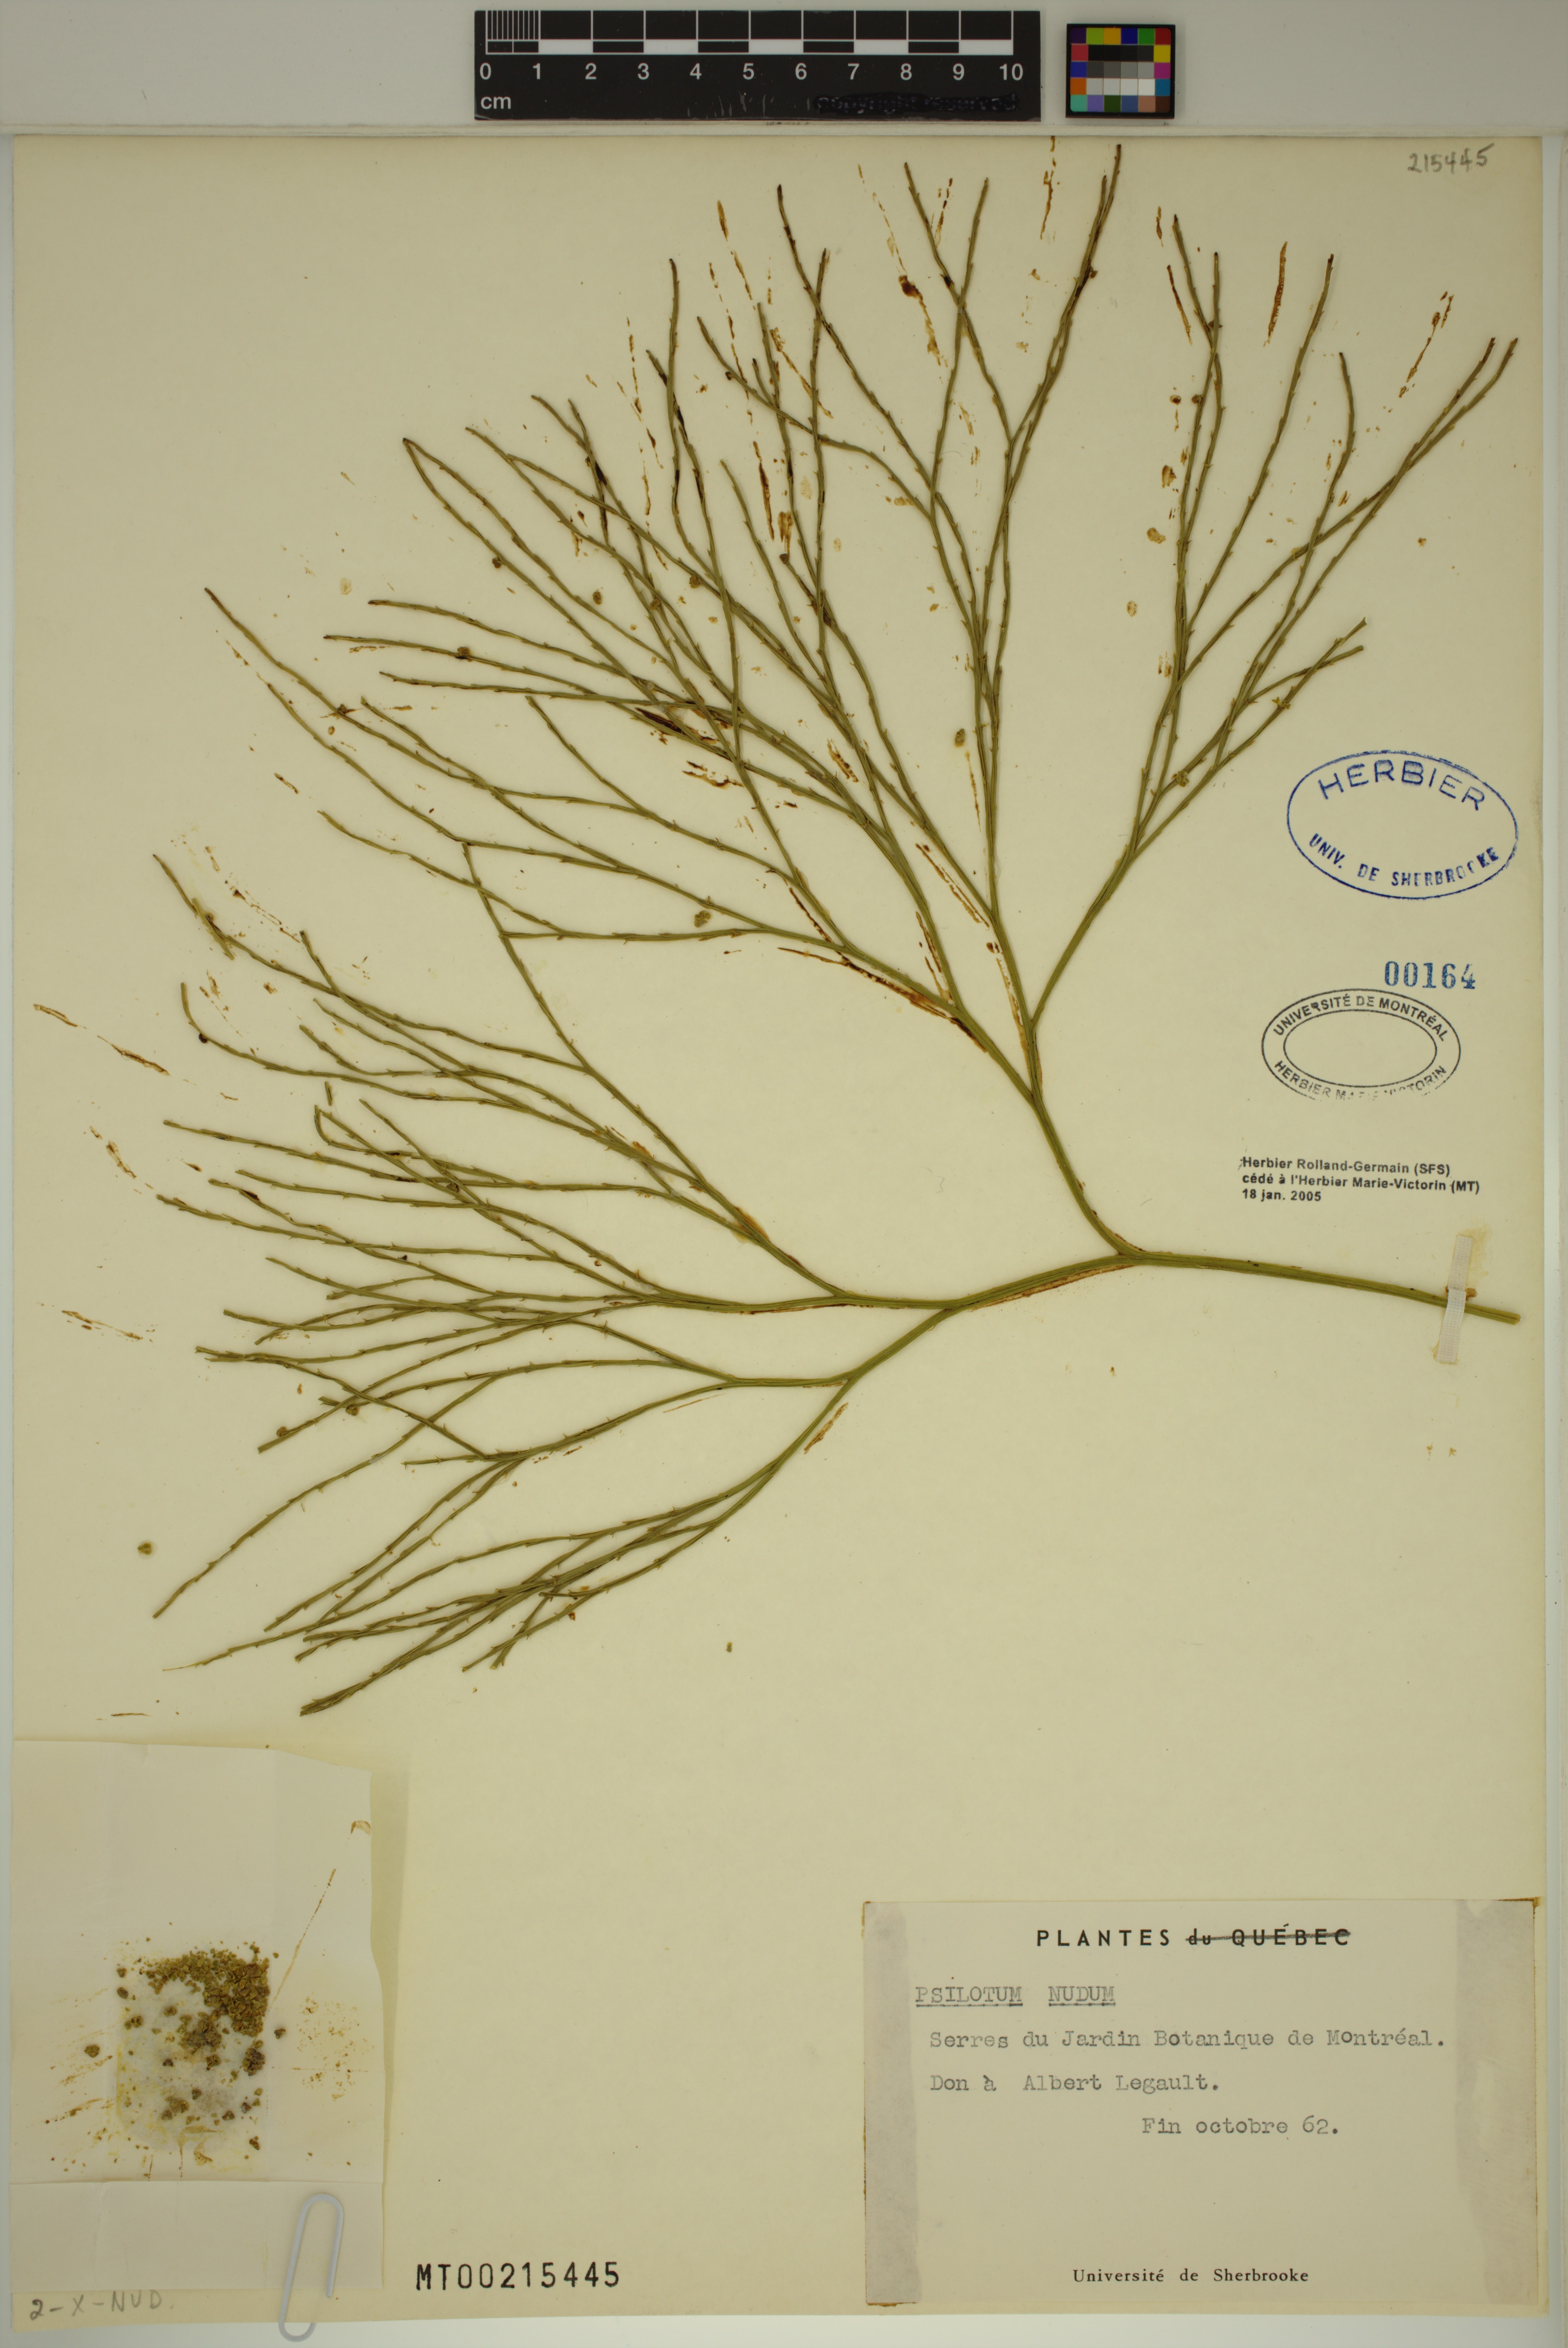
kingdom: Plantae
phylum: Tracheophyta
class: Polypodiopsida
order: Psilotales
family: Psilotaceae
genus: Psilotum
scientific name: Psilotum nudum
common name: Skeleton fork fern
